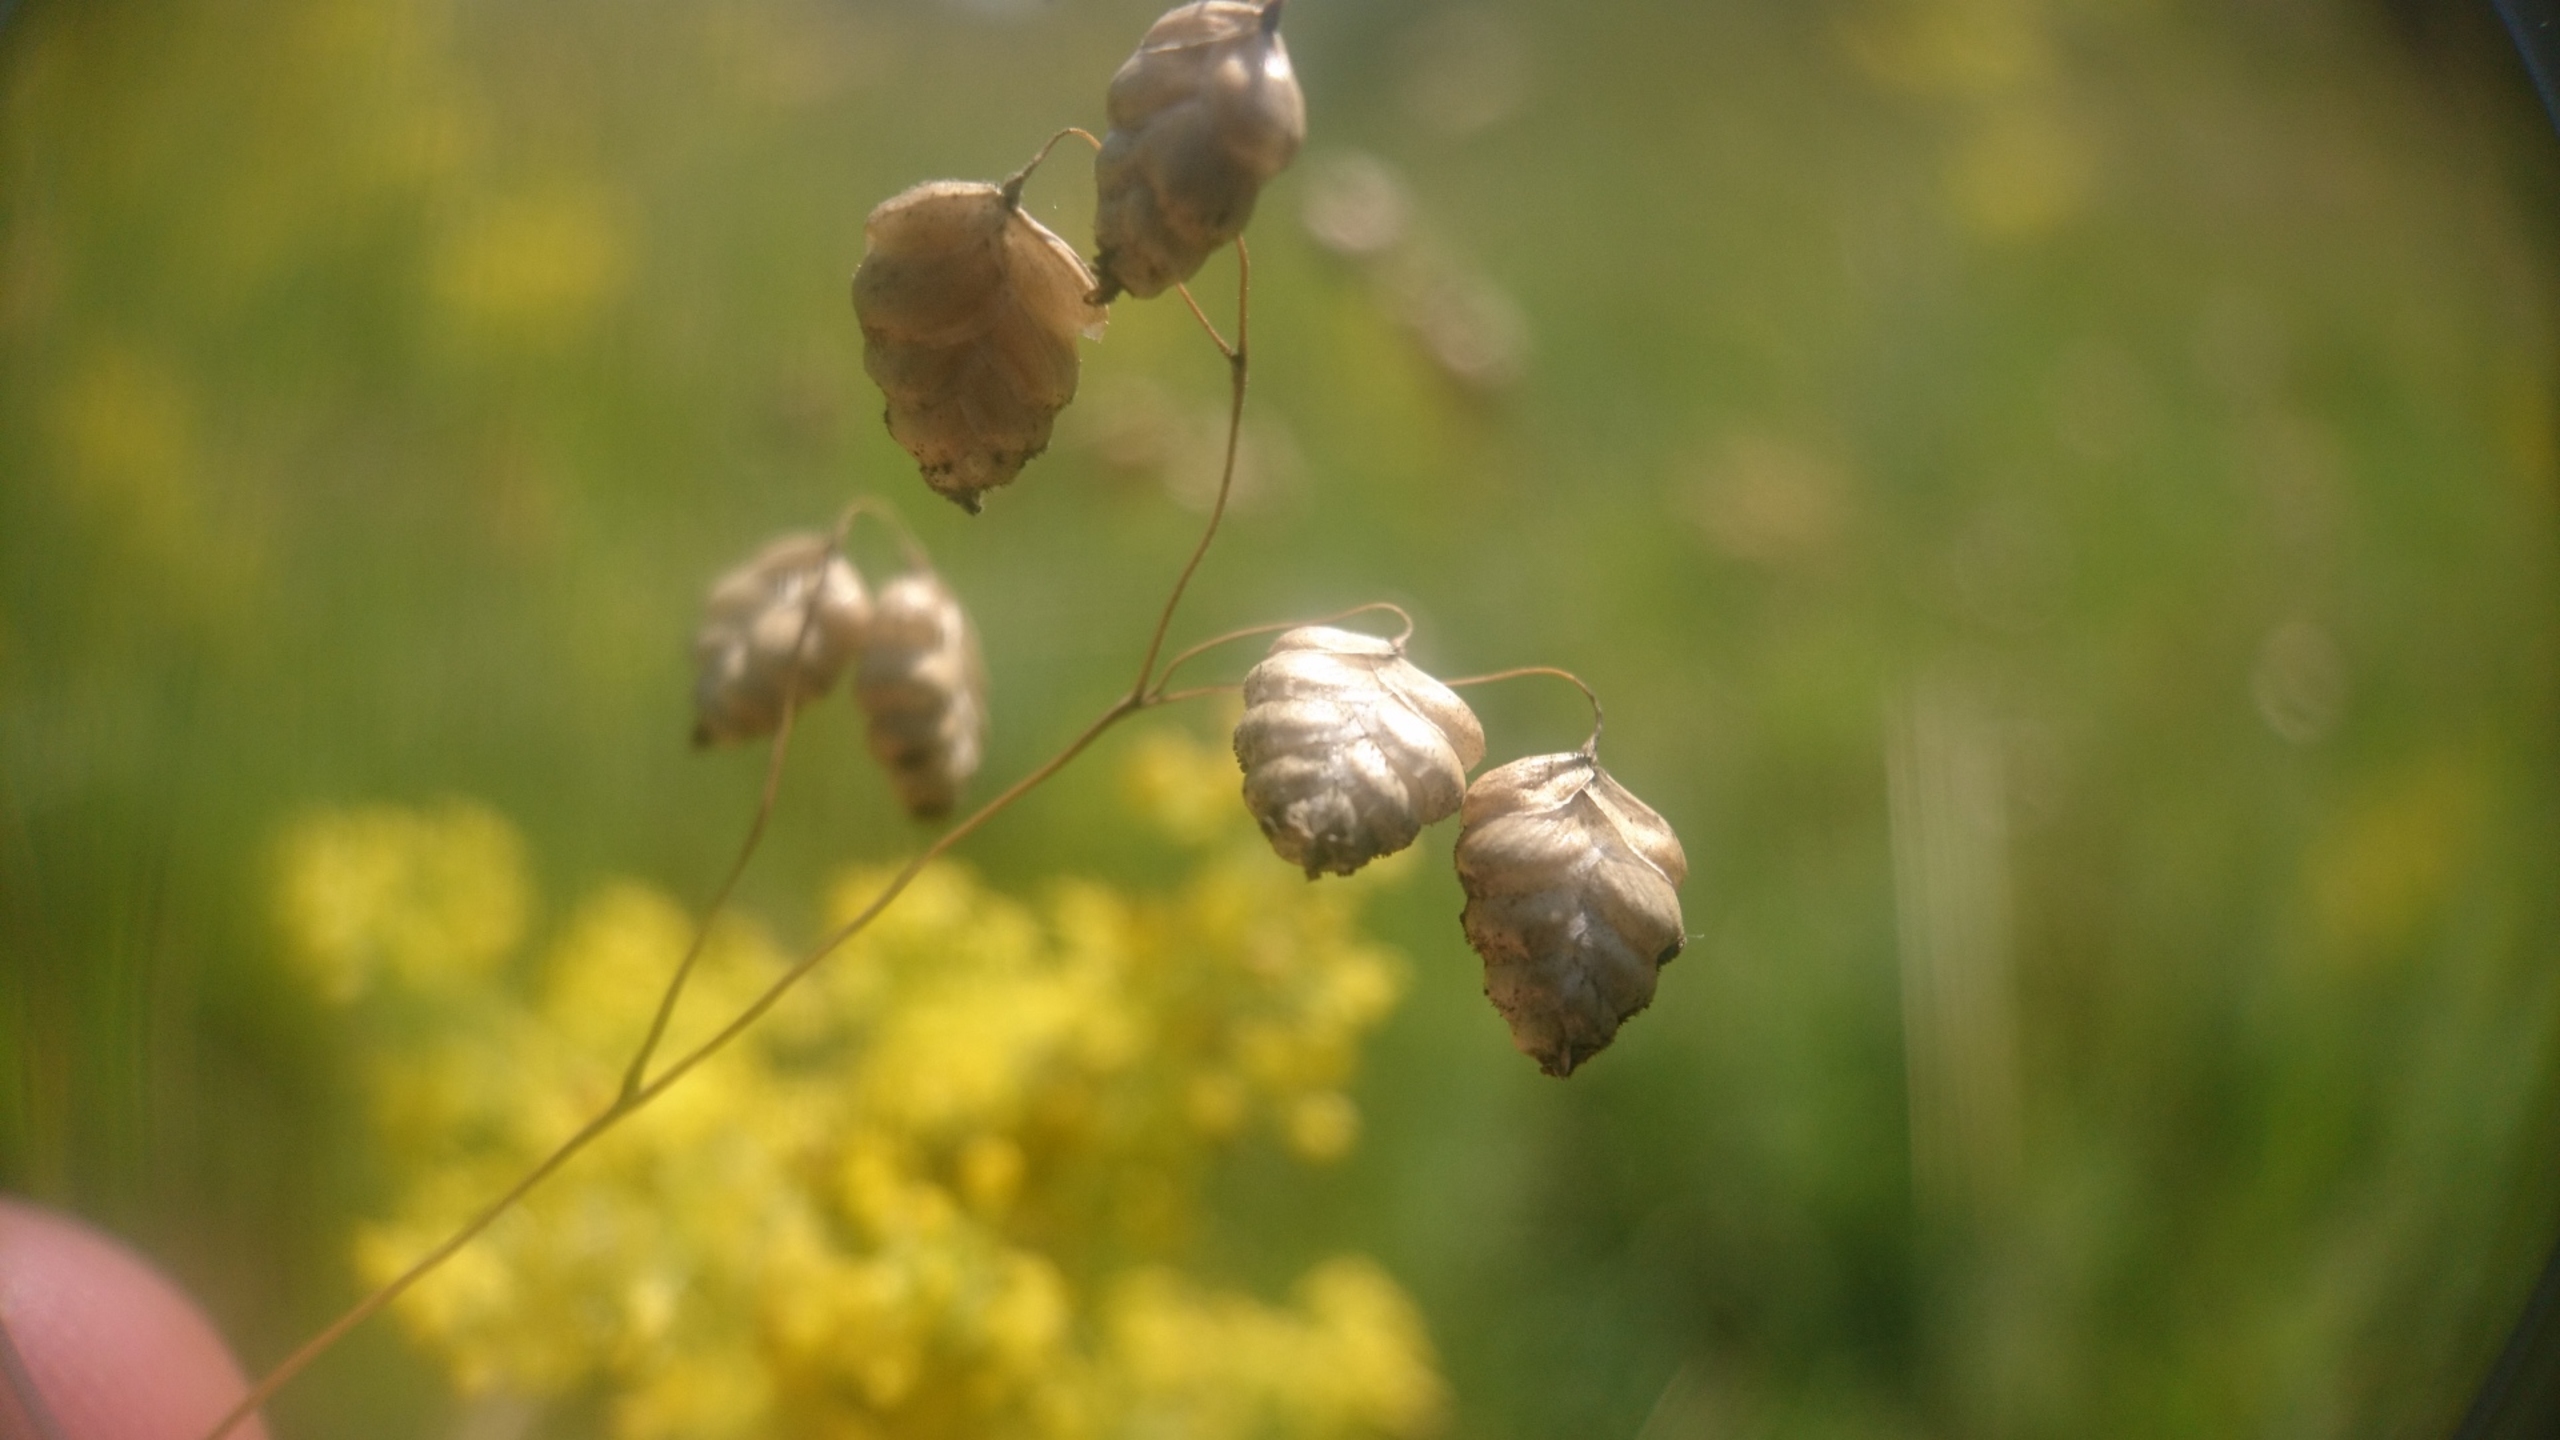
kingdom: Plantae
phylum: Tracheophyta
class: Liliopsida
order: Poales
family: Poaceae
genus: Briza
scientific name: Briza media
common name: Hjertegræs
